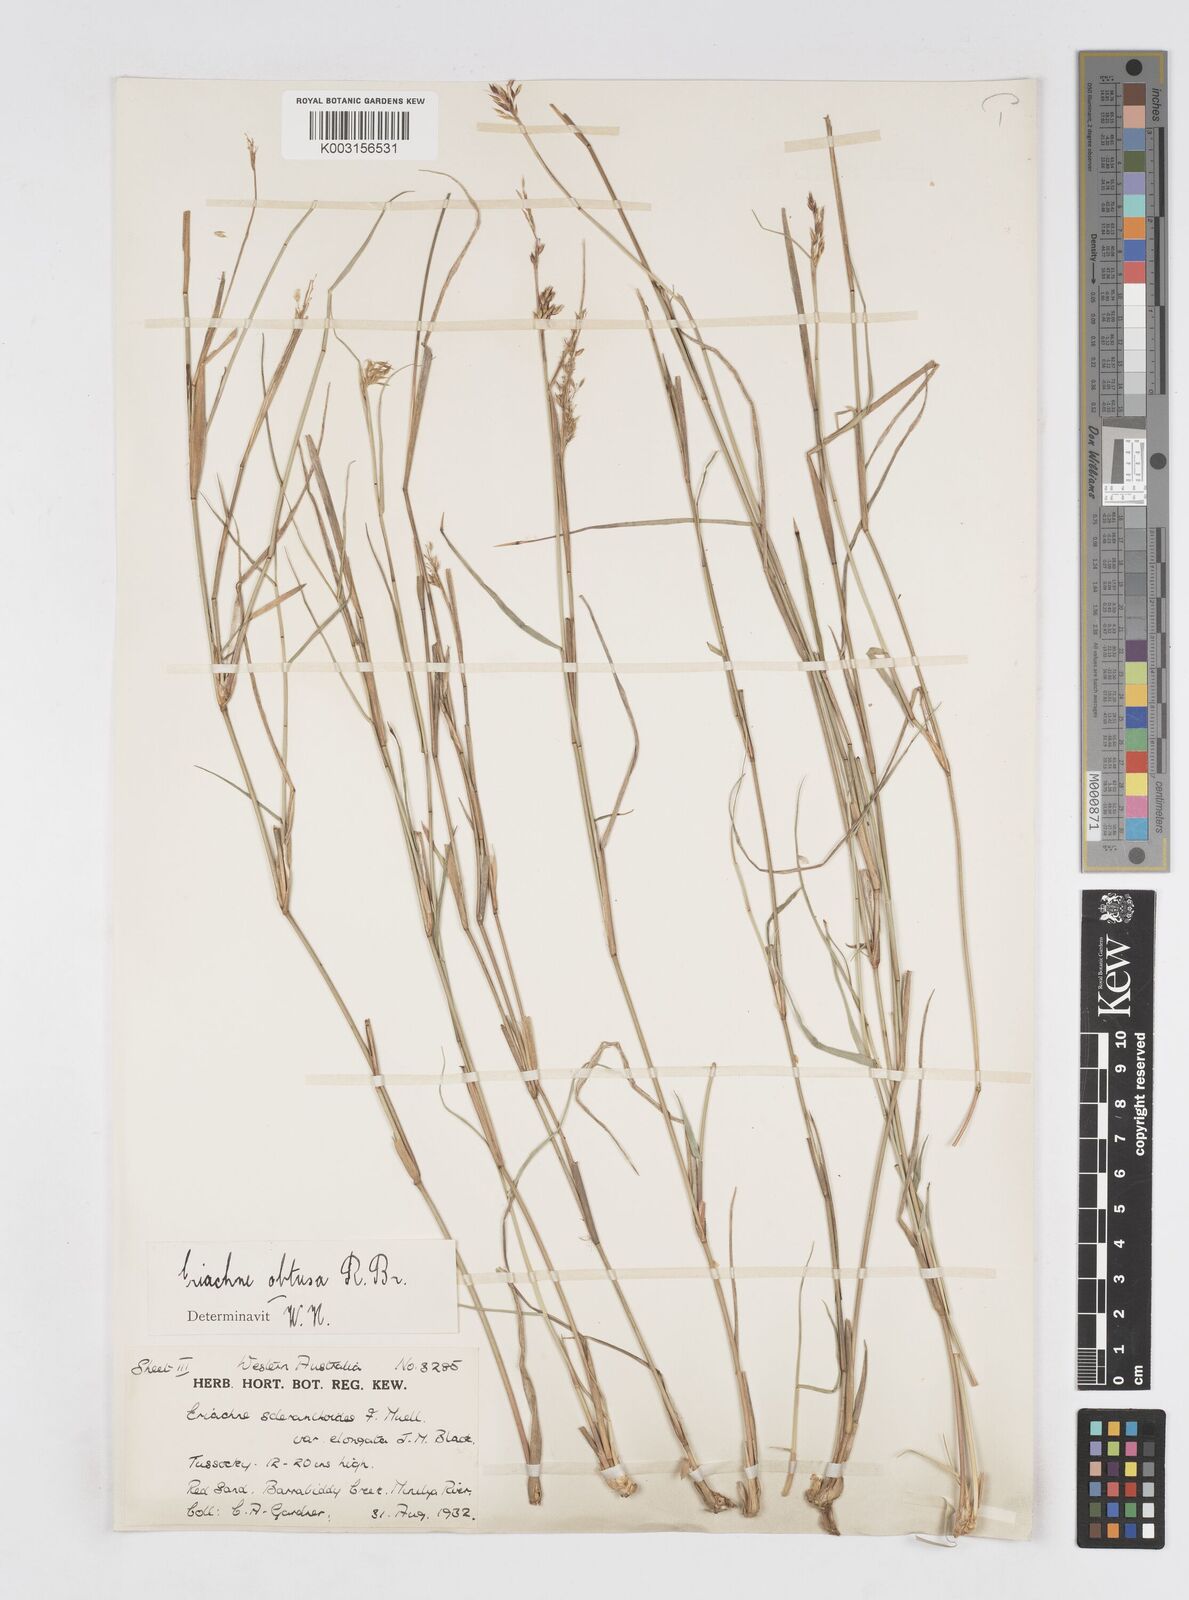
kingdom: Plantae
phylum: Tracheophyta
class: Liliopsida
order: Poales
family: Poaceae
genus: Eriachne
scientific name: Eriachne obtusa
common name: Northern wanderrie grass
